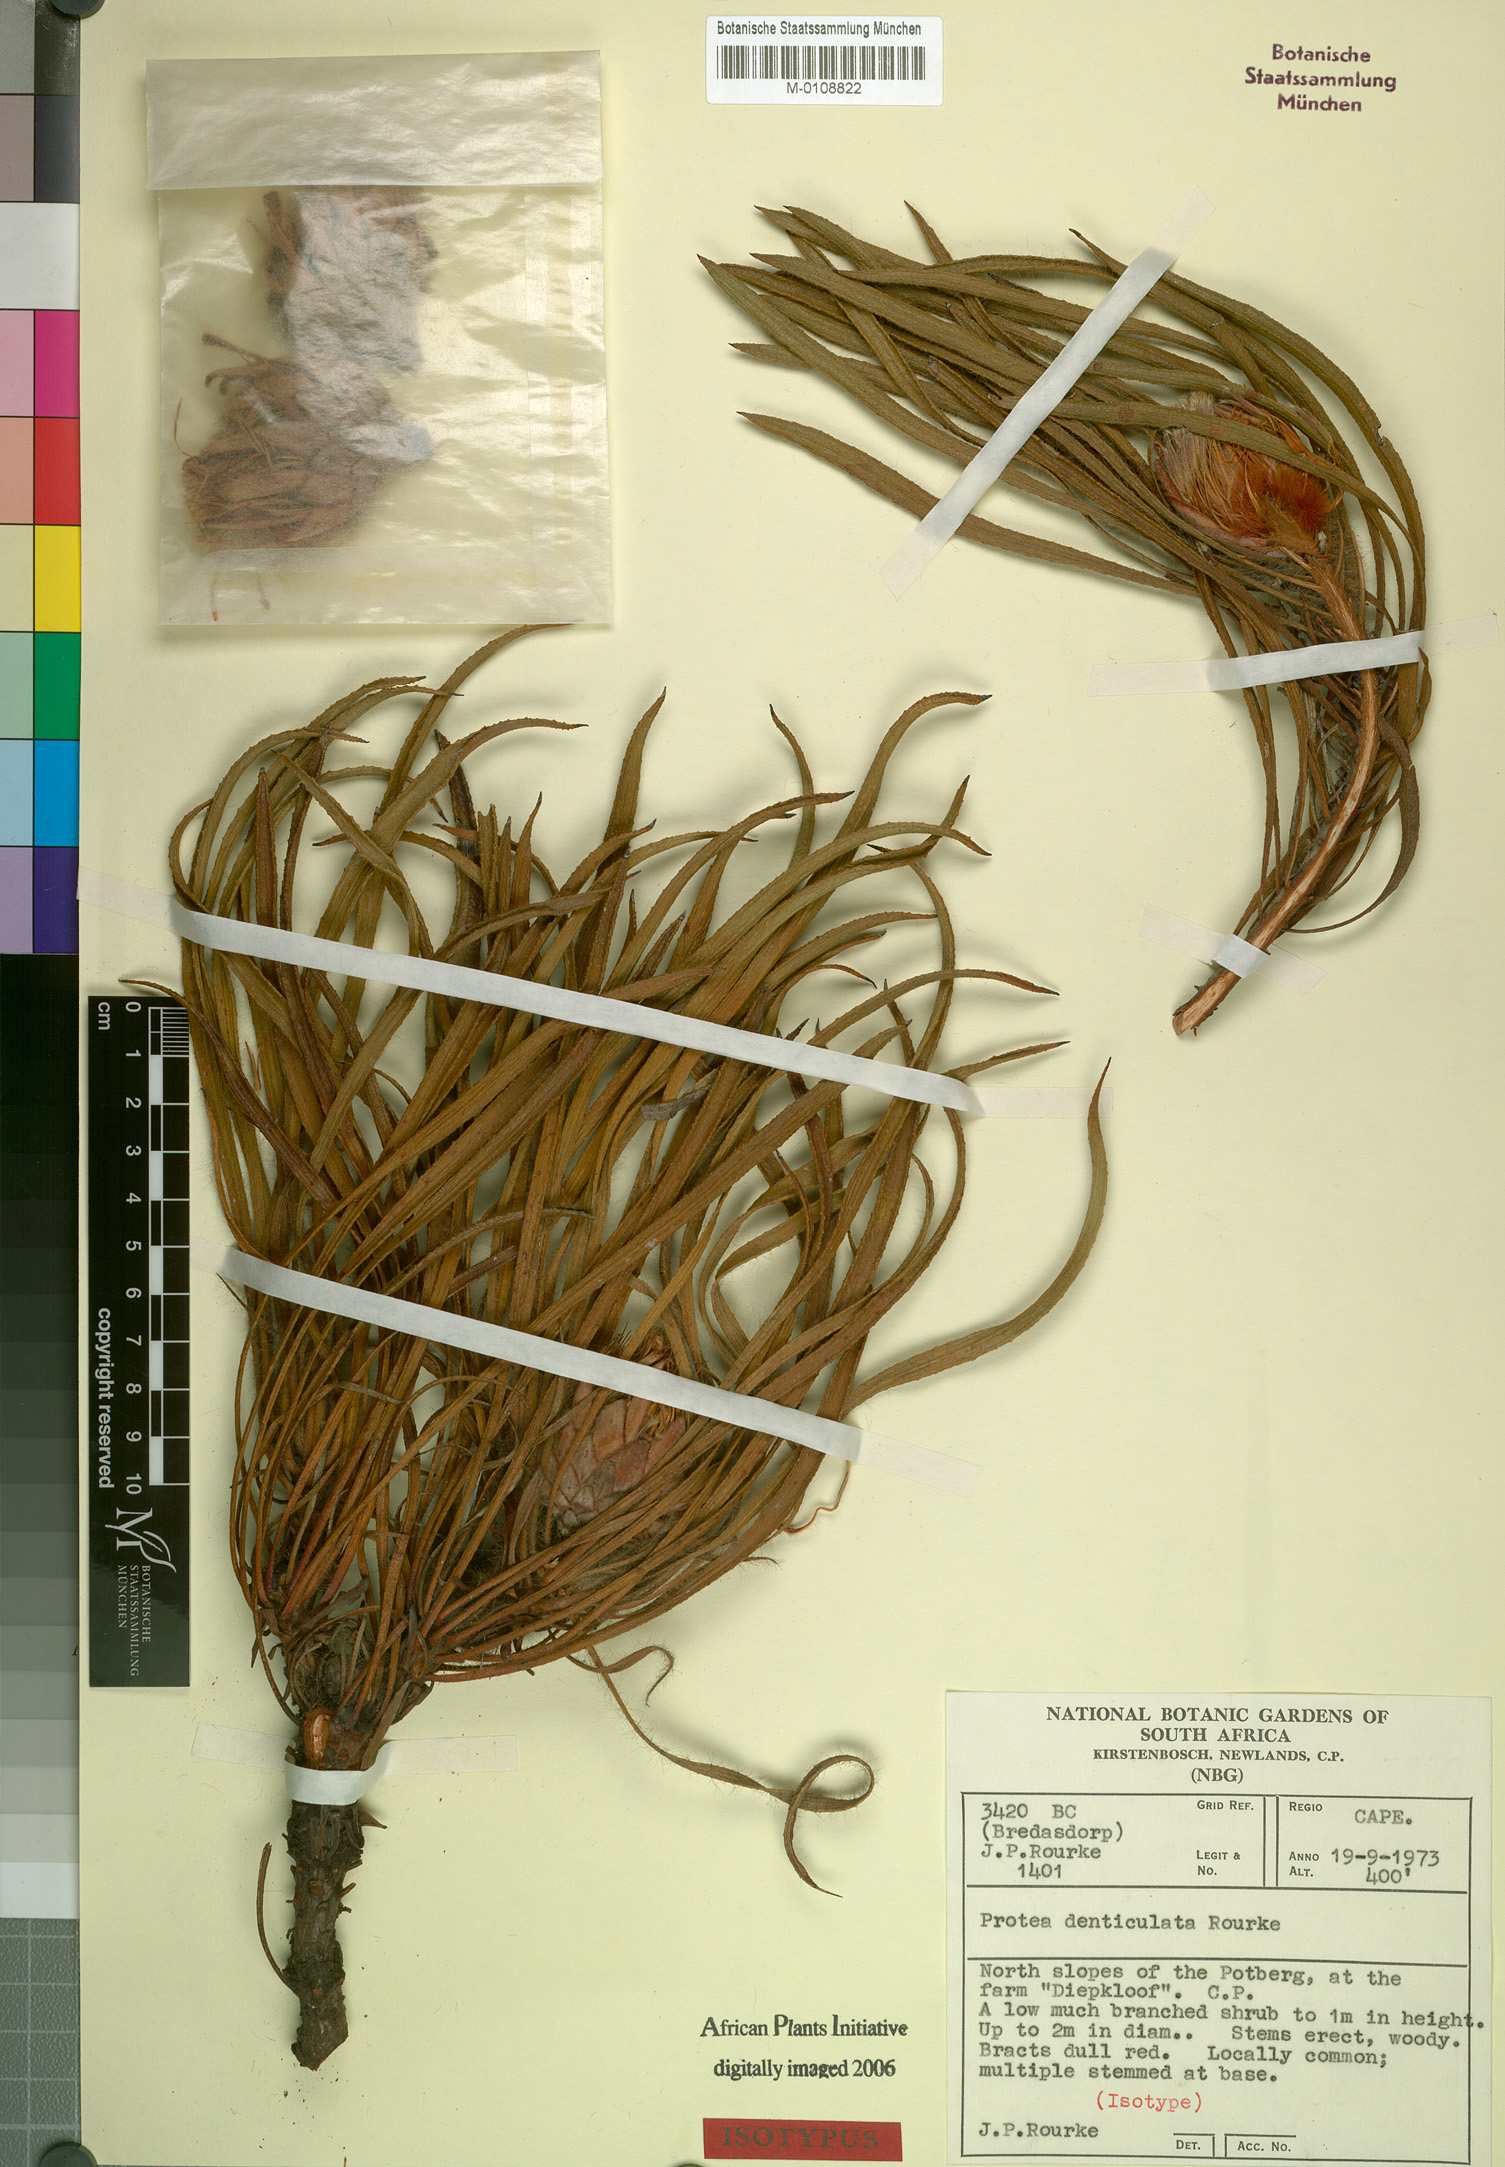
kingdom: Plantae
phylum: Tracheophyta
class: Magnoliopsida
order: Proteales
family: Proteaceae
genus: Protea
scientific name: Protea denticulata
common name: Tooth-leaf sugarbush
